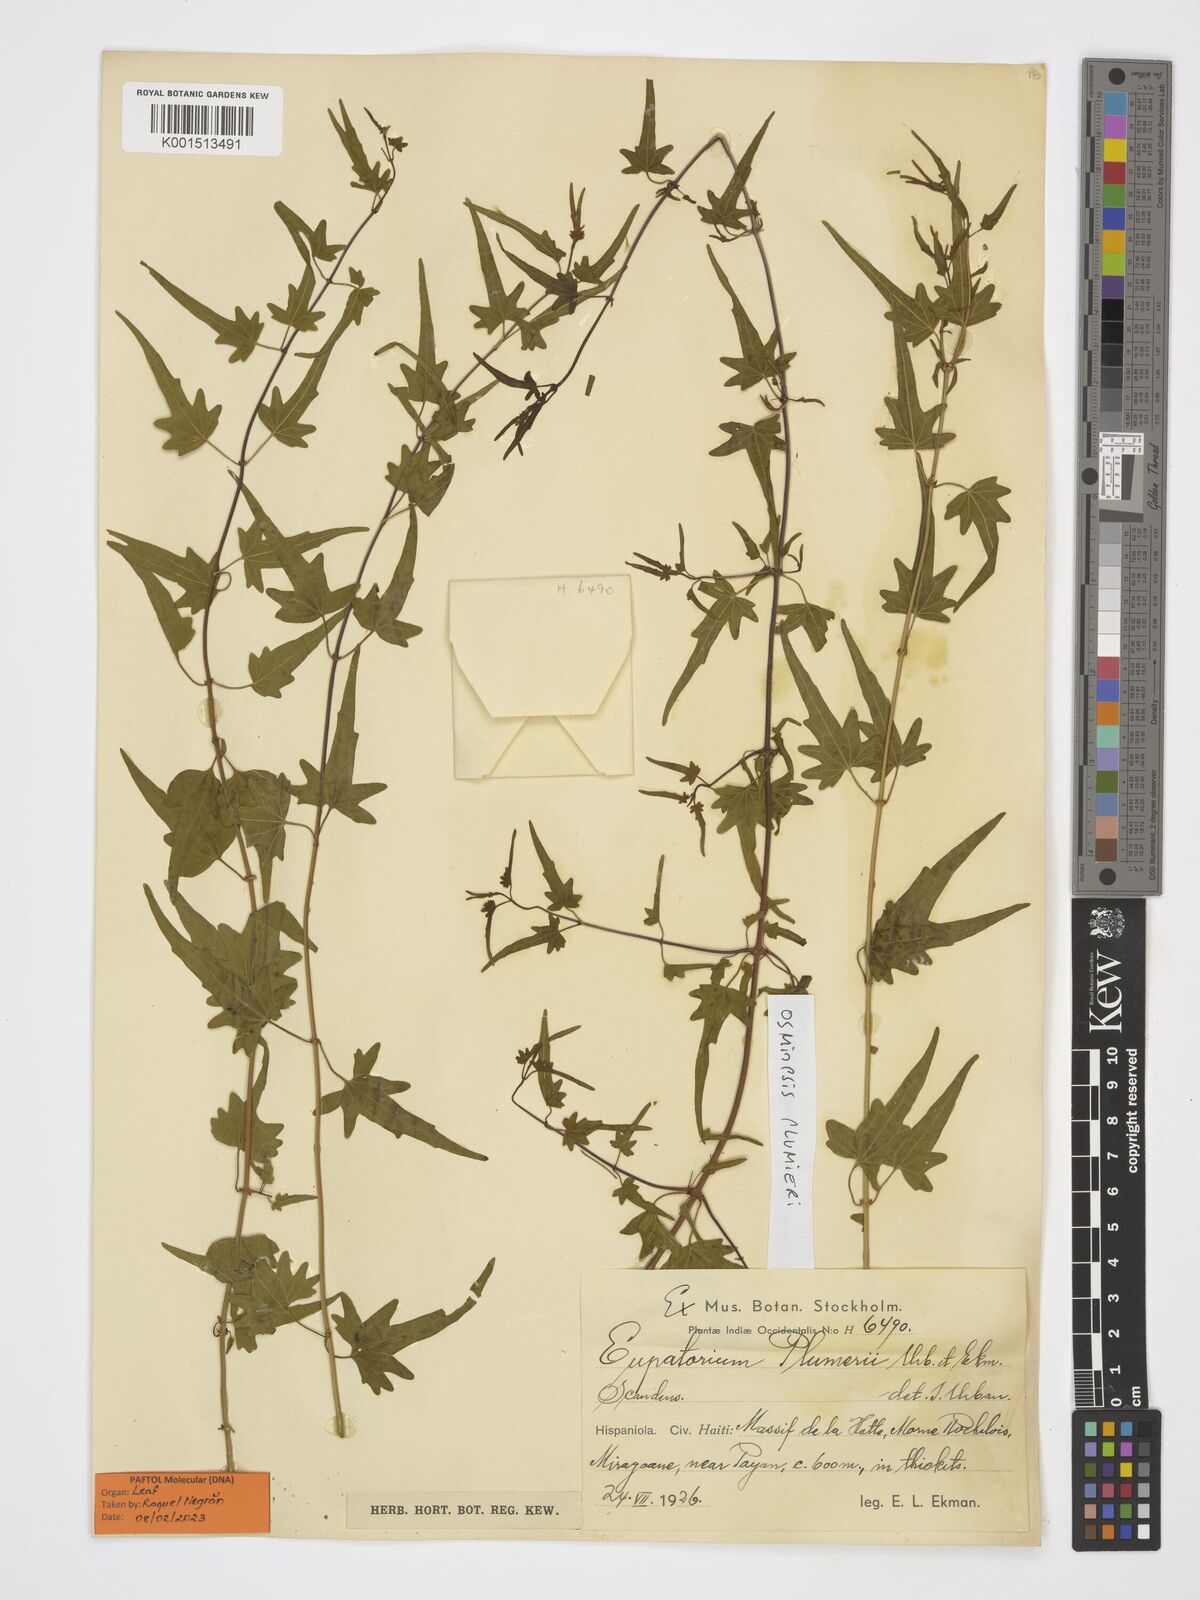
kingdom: Plantae
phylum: Tracheophyta
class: Magnoliopsida
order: Asterales
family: Asteraceae
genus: Osmiopsis
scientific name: Osmiopsis plumerii
